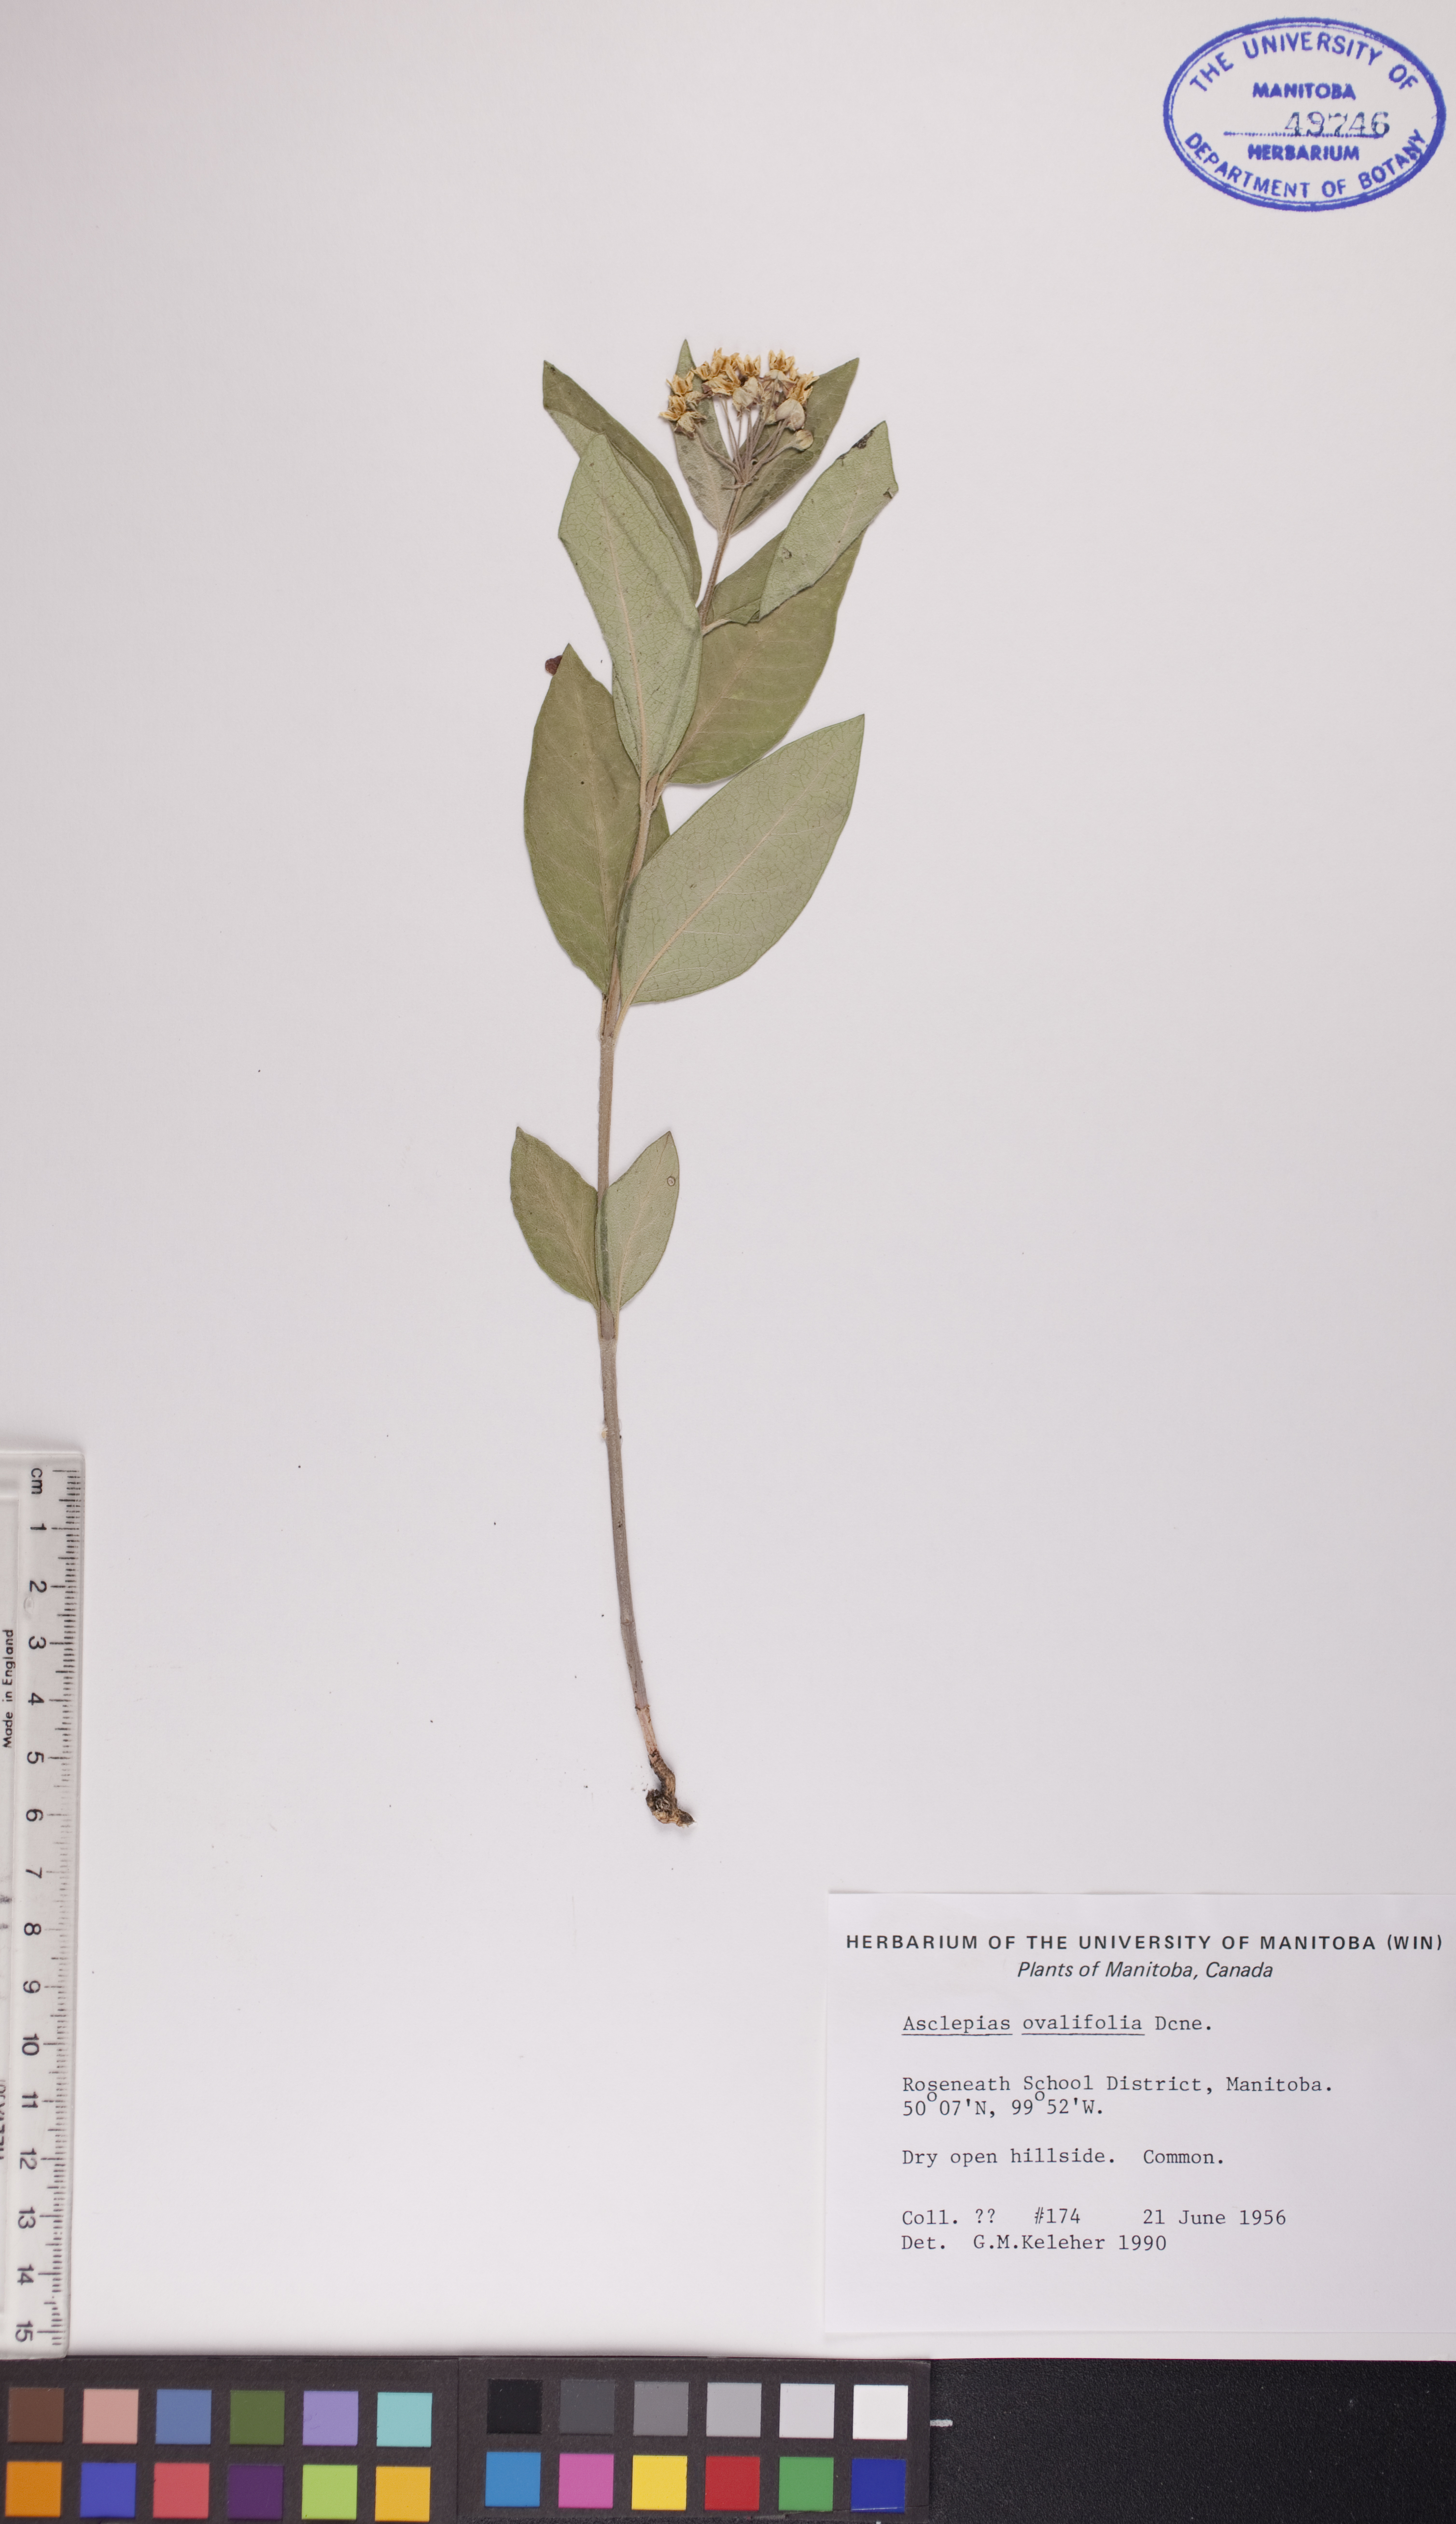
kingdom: Plantae
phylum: Tracheophyta
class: Magnoliopsida
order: Gentianales
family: Apocynaceae
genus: Asclepias
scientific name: Asclepias ovalifolia
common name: Dwarf milkweed
